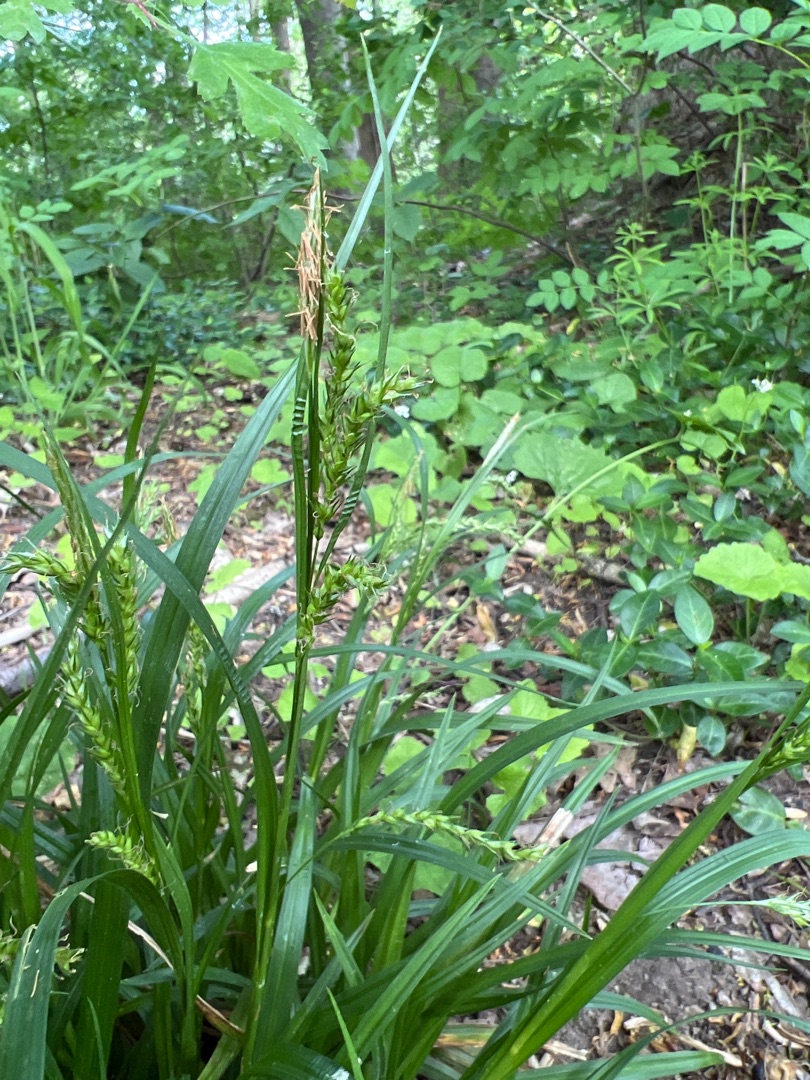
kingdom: Plantae
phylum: Tracheophyta
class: Liliopsida
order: Poales
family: Cyperaceae
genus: Carex
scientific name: Carex sylvatica
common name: Skov-star
